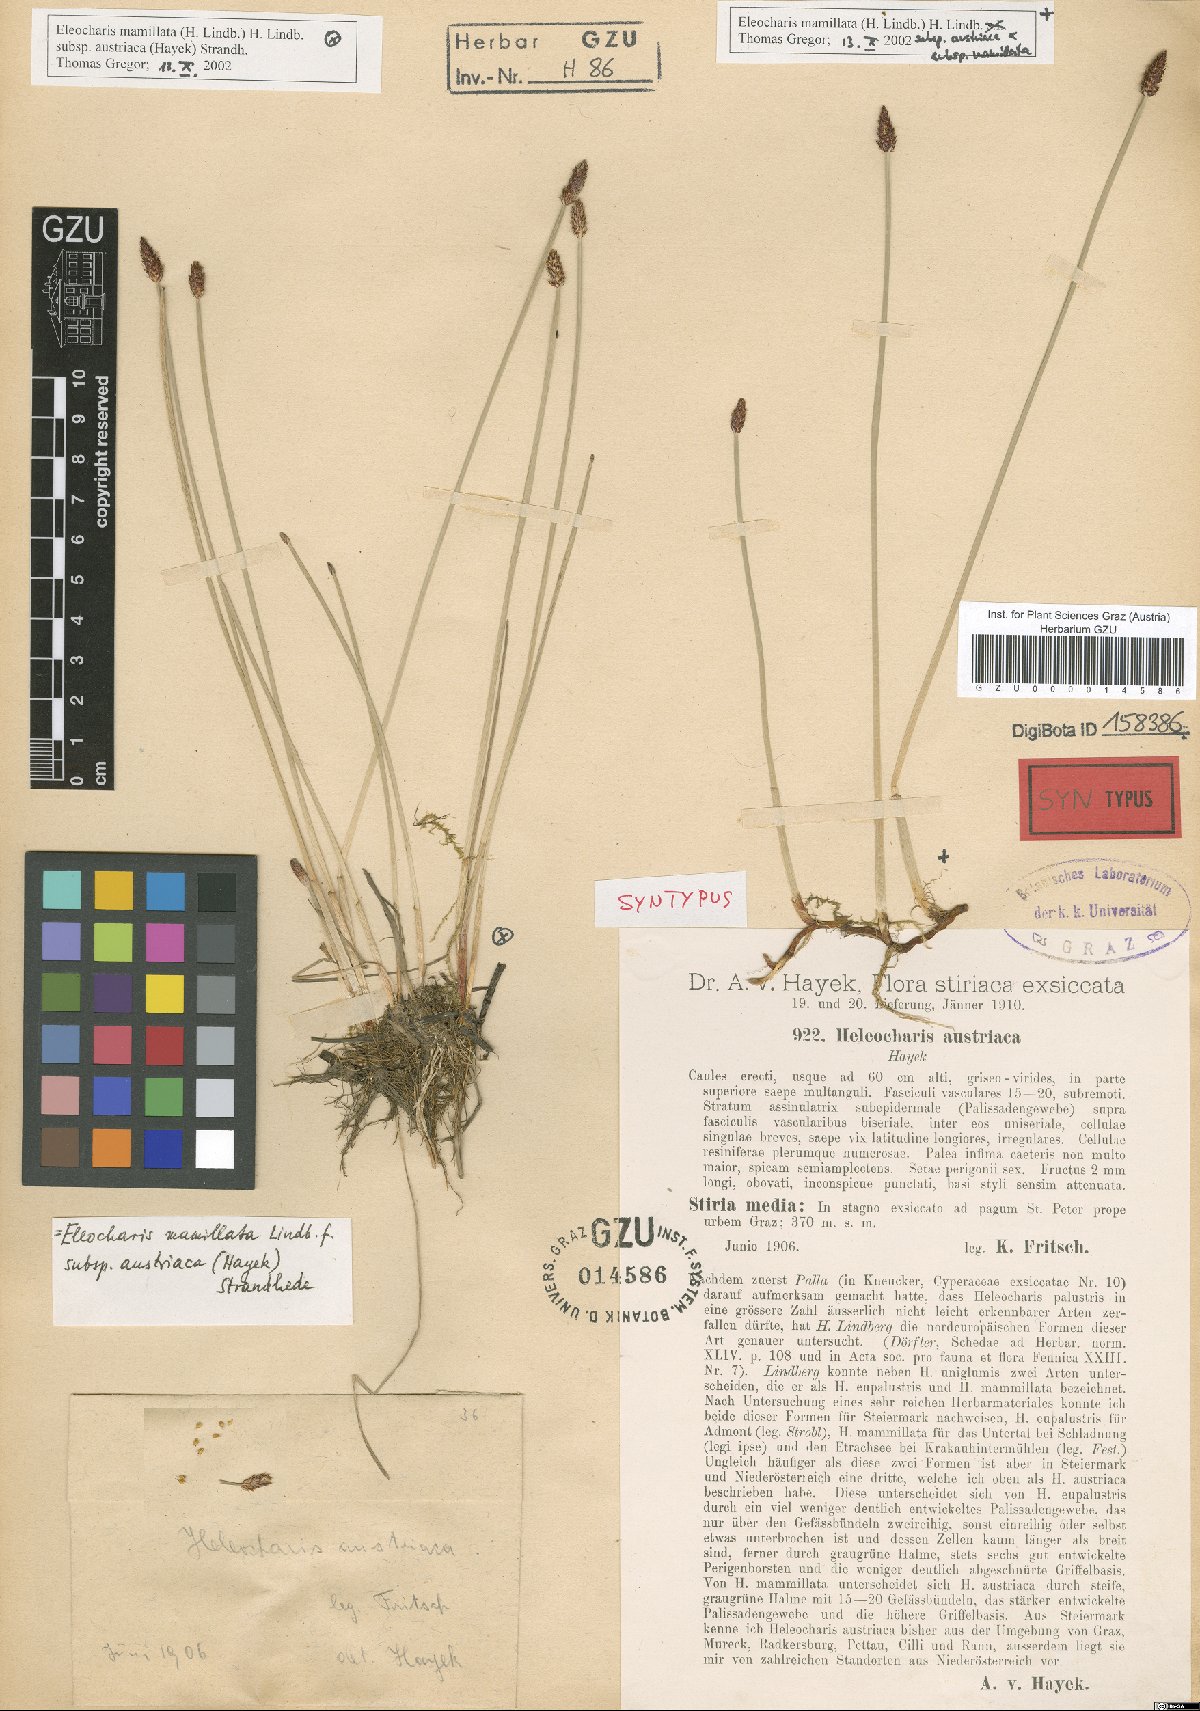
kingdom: Plantae
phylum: Tracheophyta
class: Liliopsida
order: Poales
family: Cyperaceae
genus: Eleocharis
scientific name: Eleocharis mamillata
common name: Northern spike-rush
